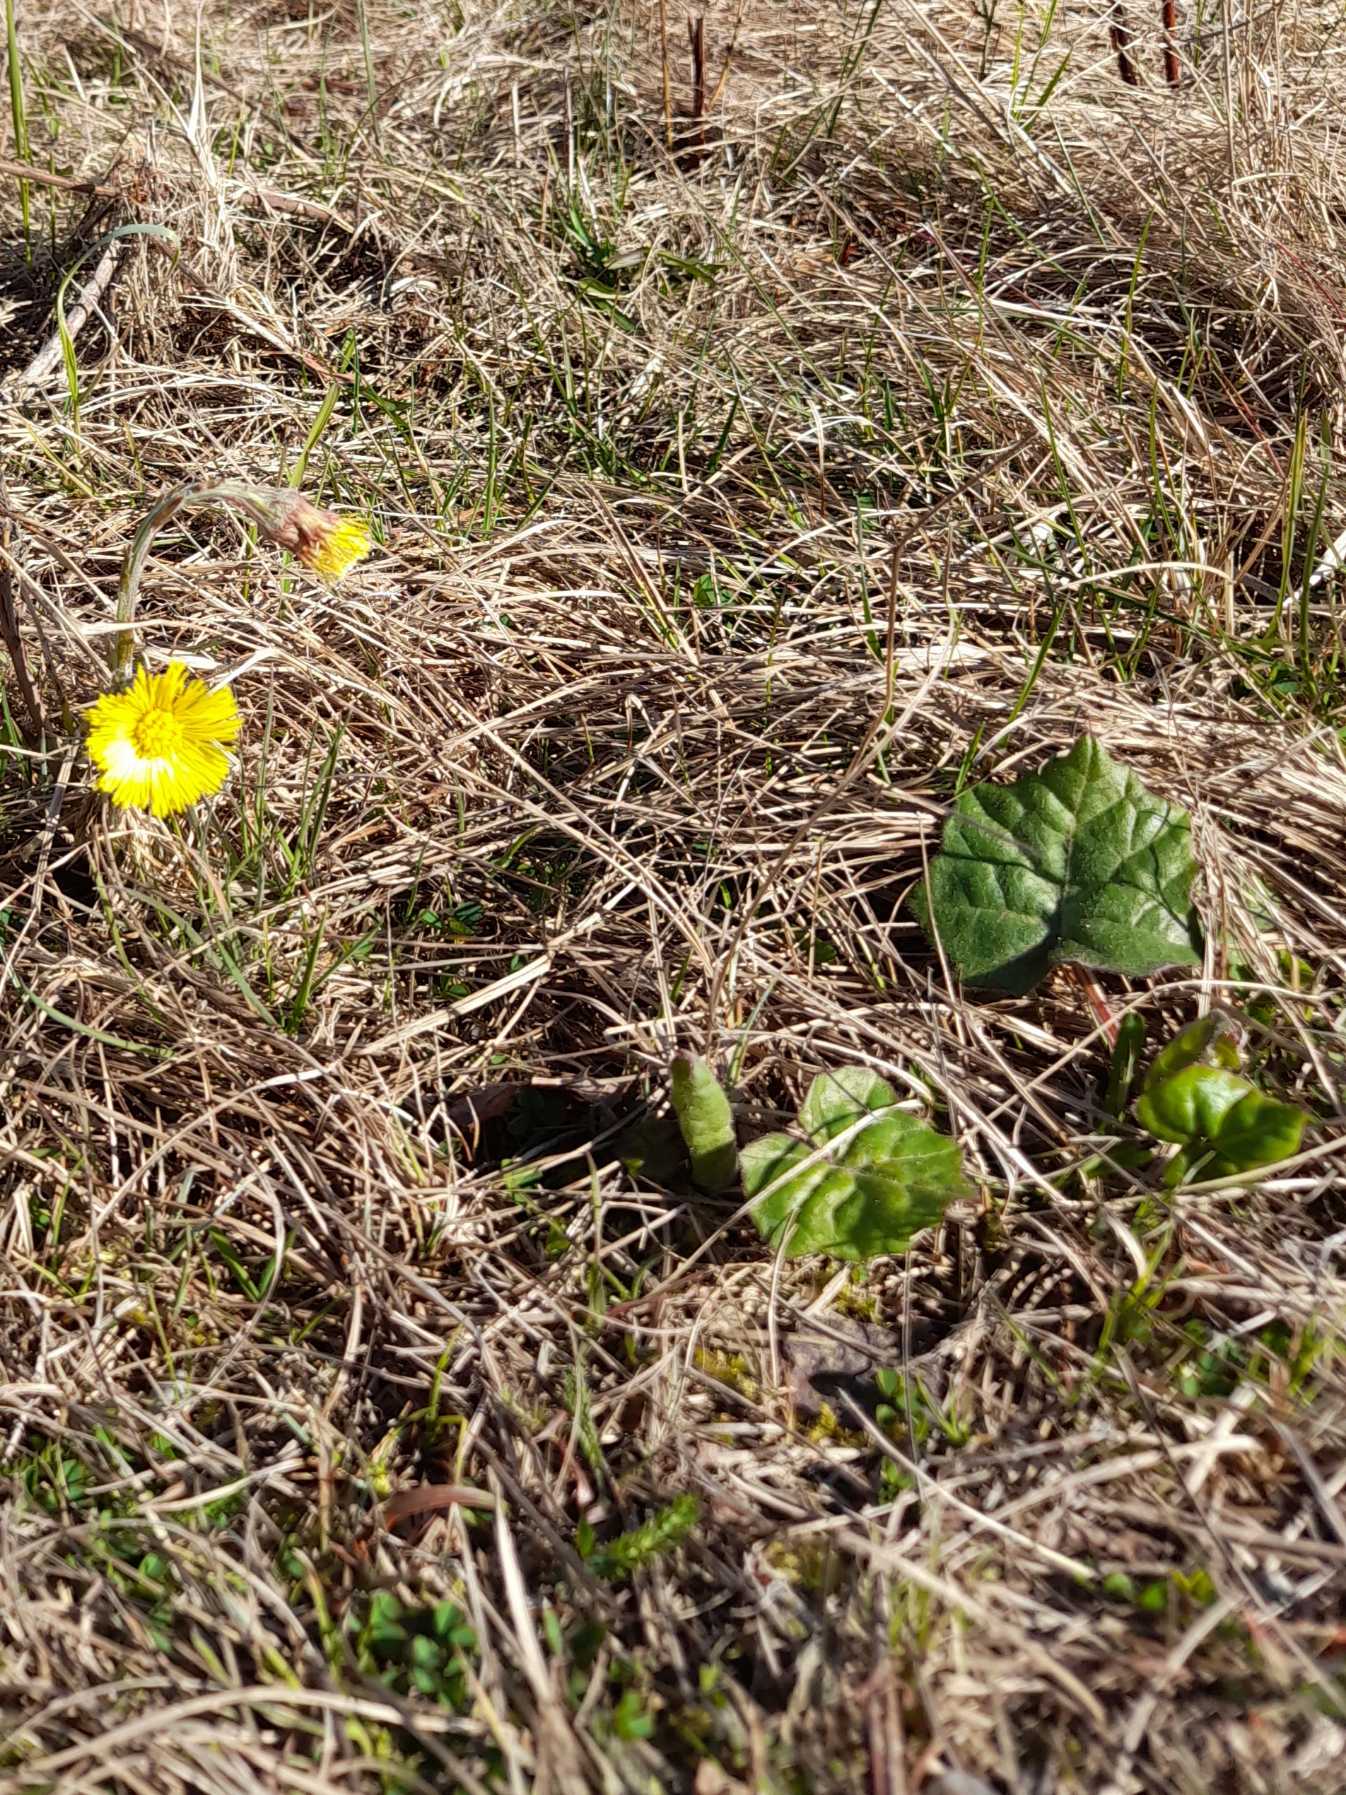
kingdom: Plantae
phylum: Tracheophyta
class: Magnoliopsida
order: Asterales
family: Asteraceae
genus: Tussilago
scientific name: Tussilago farfara
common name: Følfod
